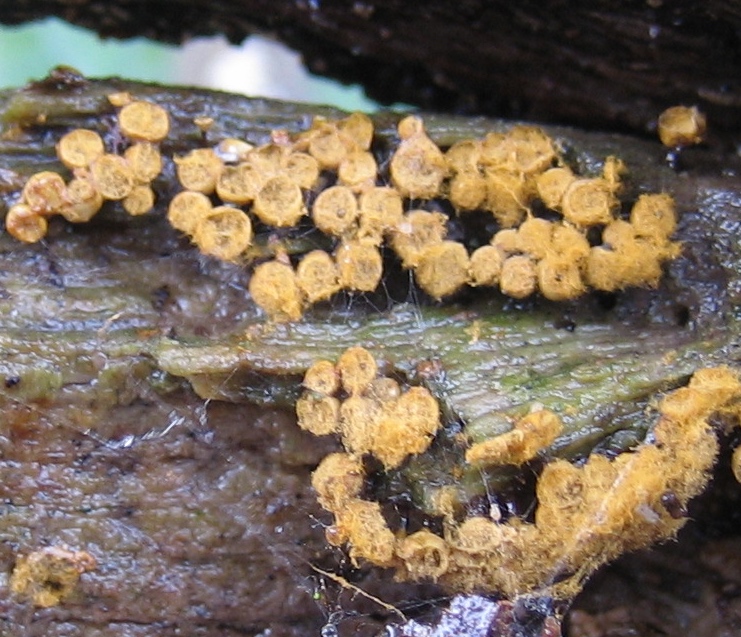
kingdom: Protozoa
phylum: Mycetozoa
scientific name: Mycetozoa
